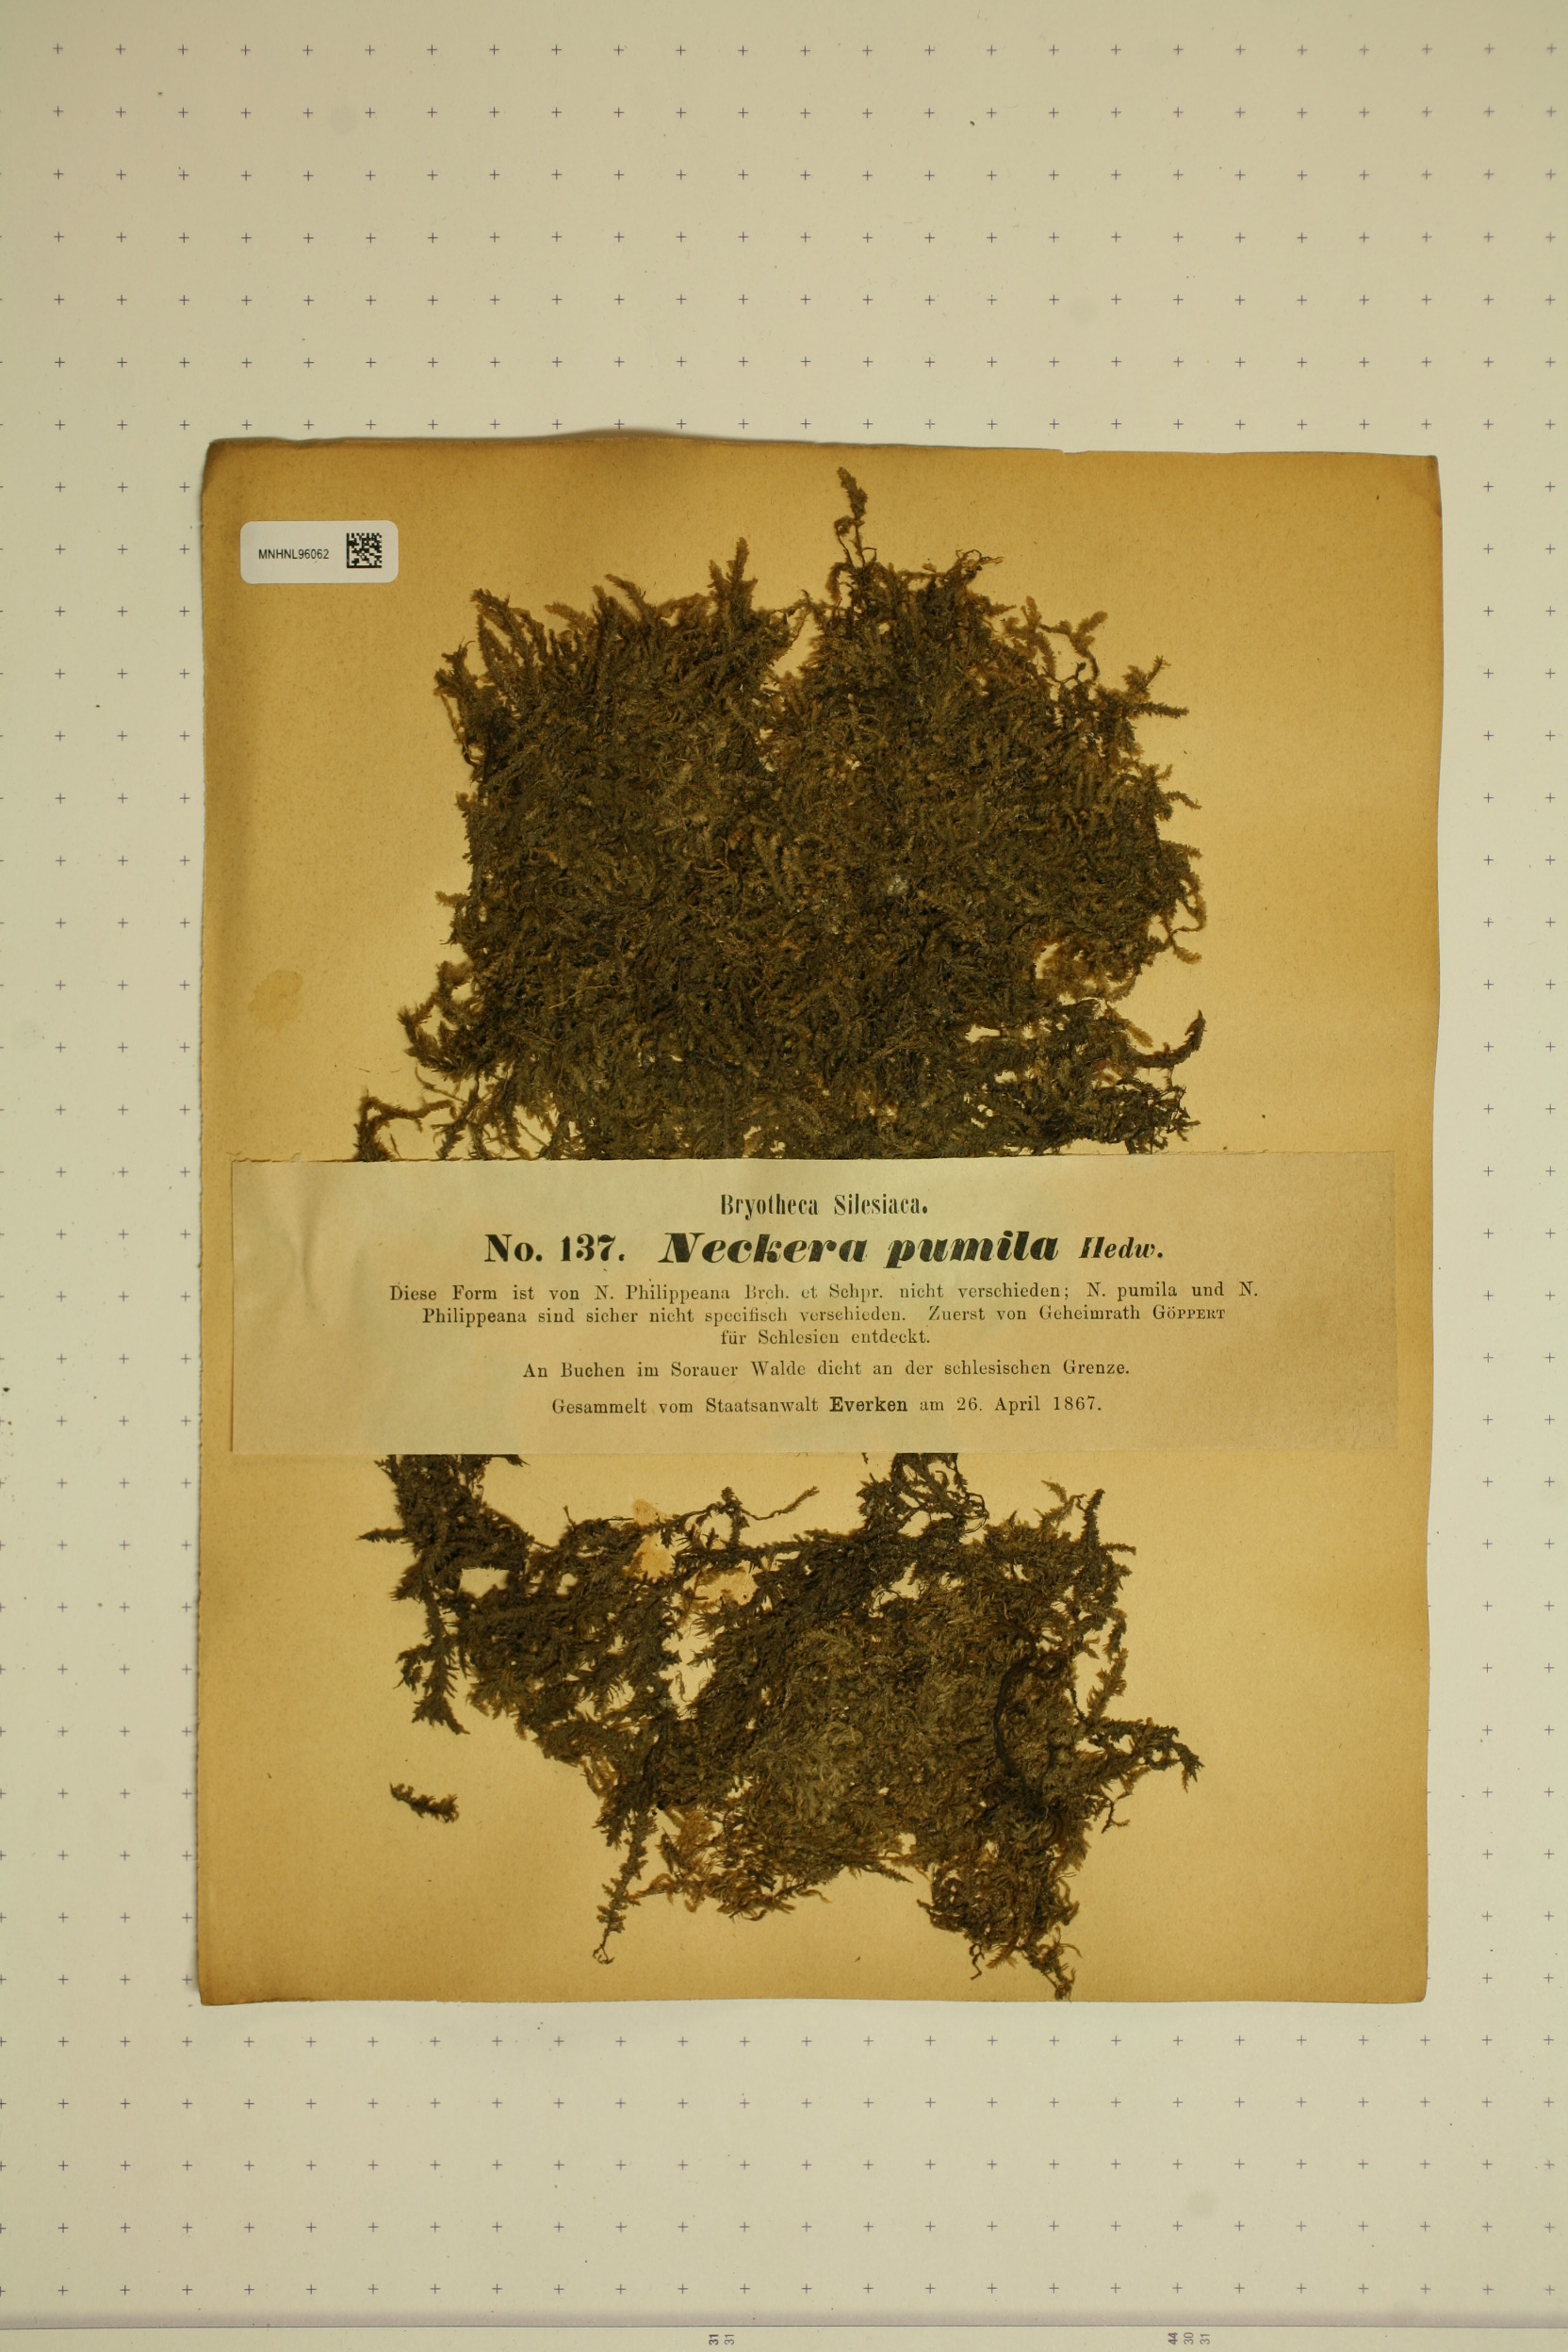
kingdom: Plantae
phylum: Bryophyta
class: Bryopsida
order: Hypnales
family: Neckeraceae
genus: Neckera
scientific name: Neckera pumila
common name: Dwarf neckera
